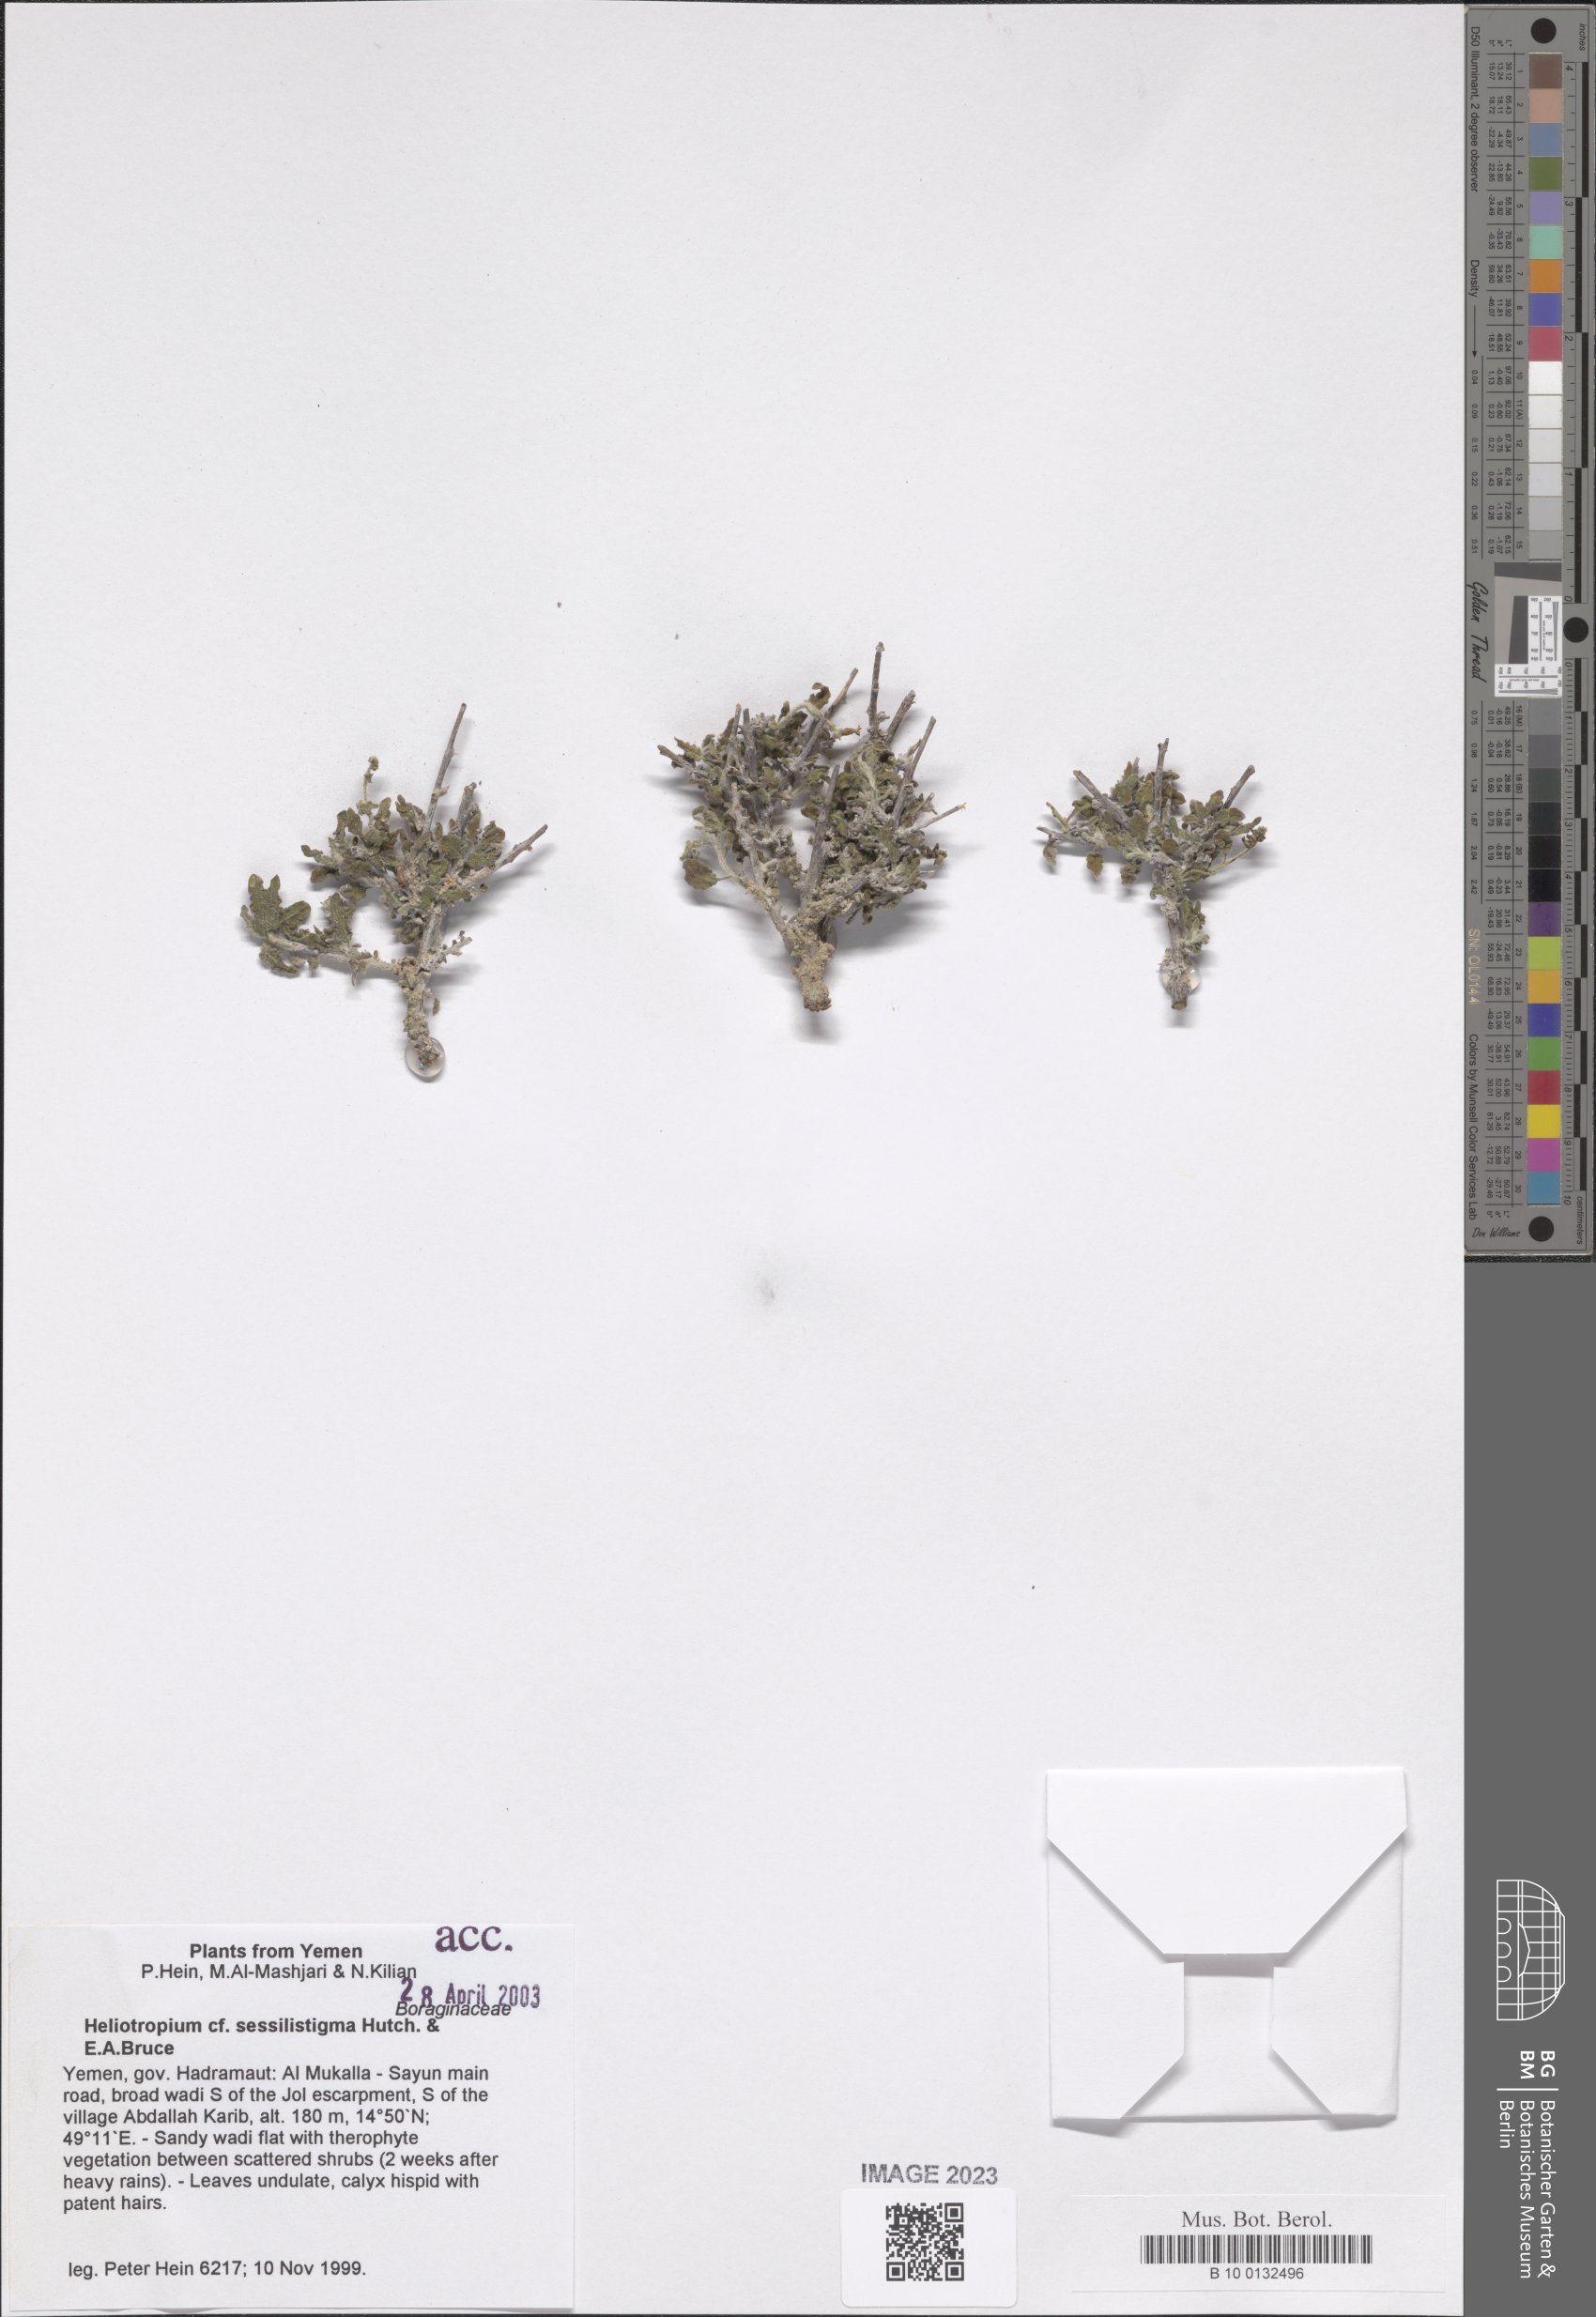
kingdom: Plantae
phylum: Tracheophyta
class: Magnoliopsida
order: Boraginales
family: Heliotropiaceae
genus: Euploca
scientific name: Euploca sessilistigma
